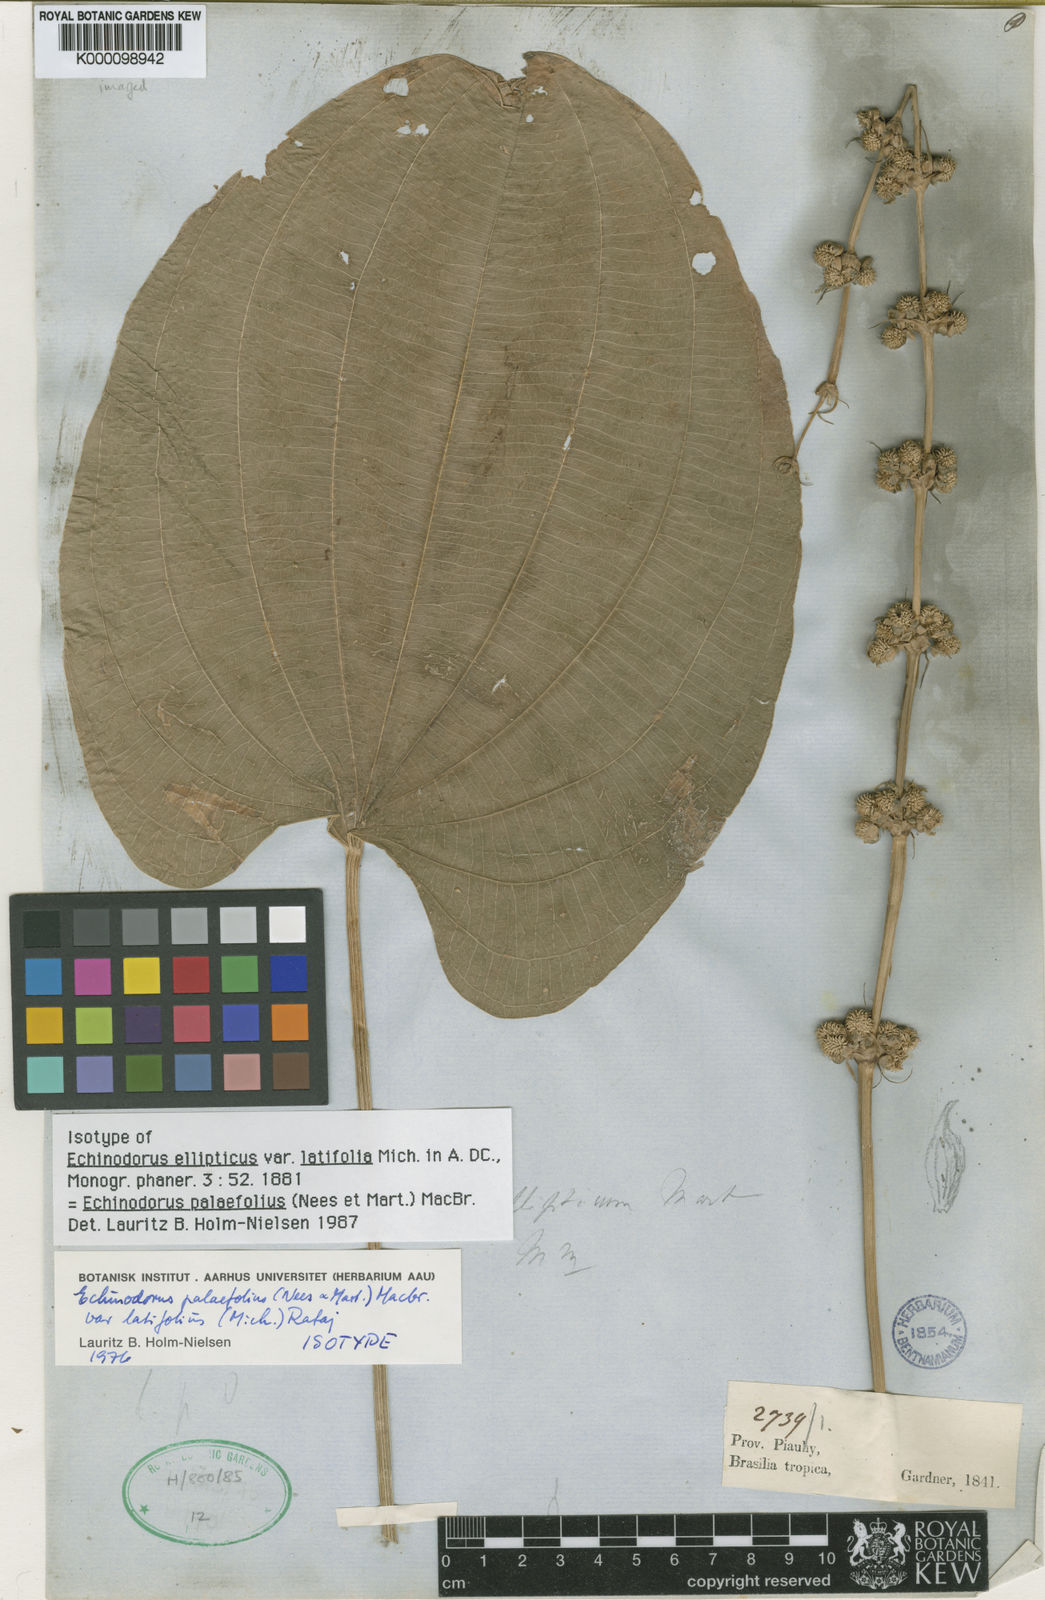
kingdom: Plantae
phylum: Tracheophyta
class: Liliopsida
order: Alismatales
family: Alismataceae
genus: Aquarius
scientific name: Aquarius palifolius
